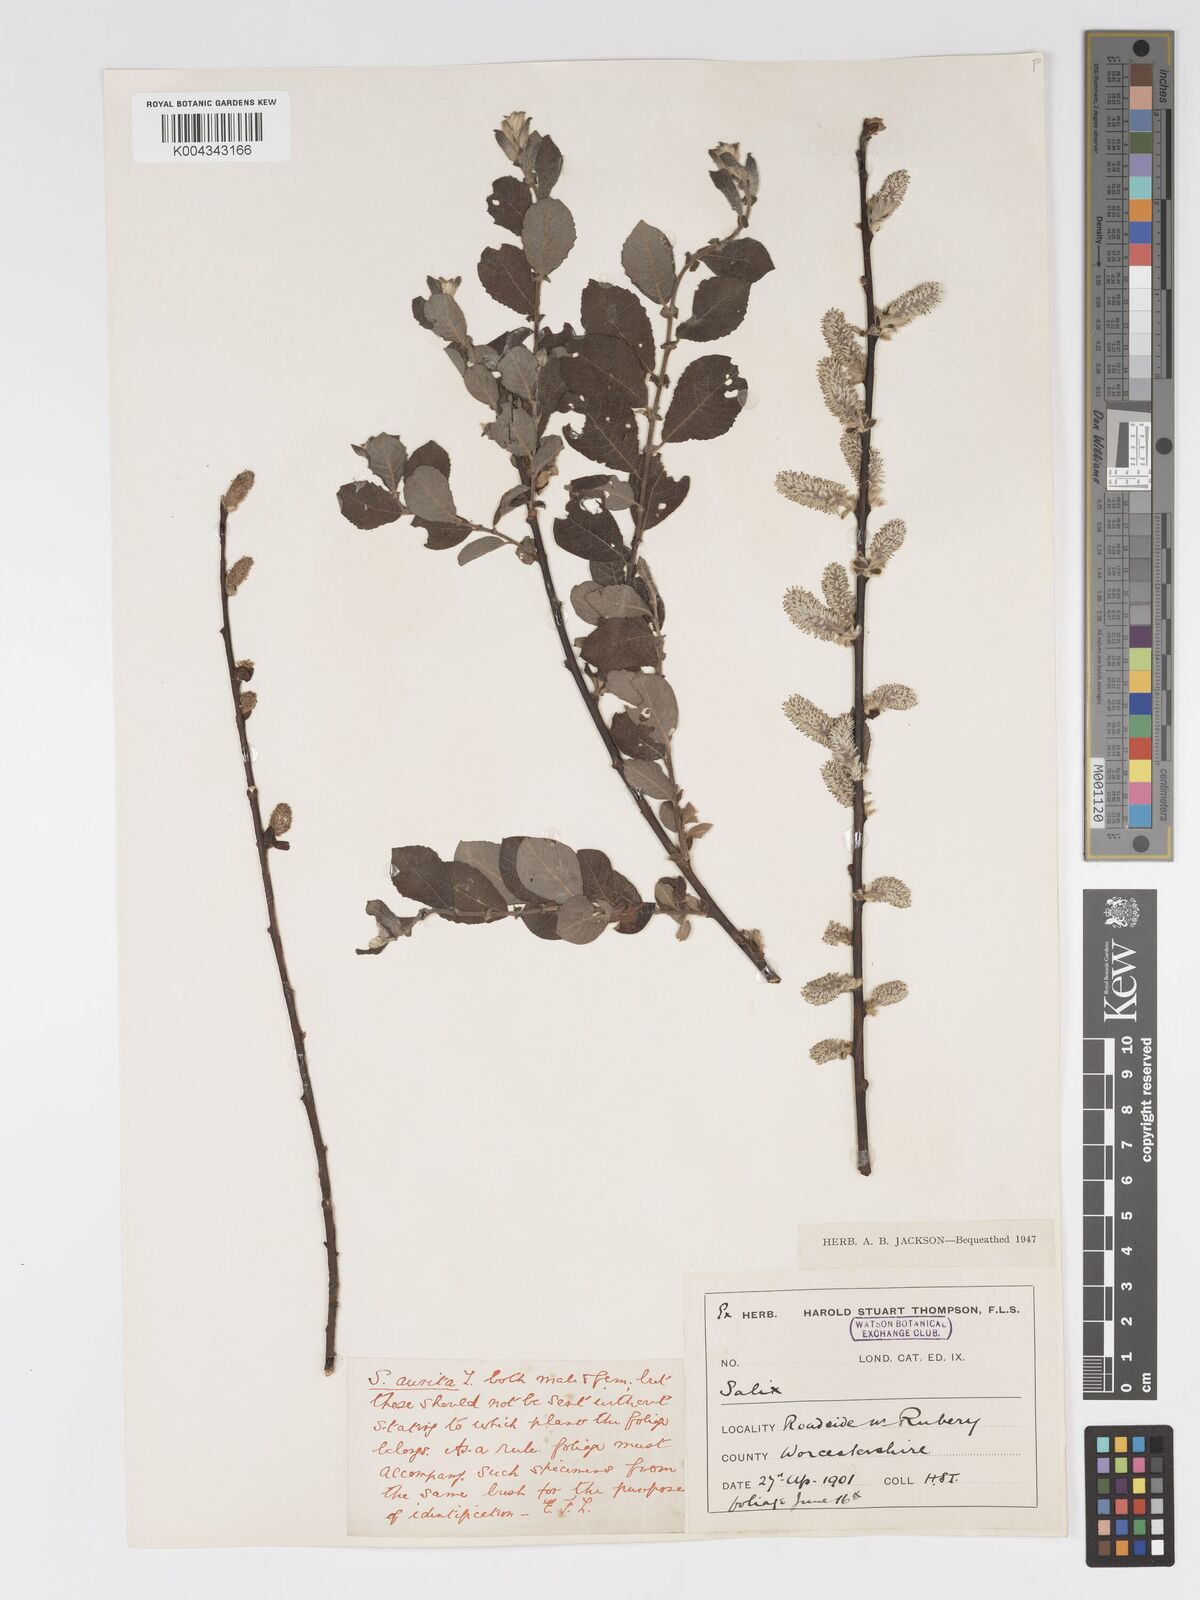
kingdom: Plantae
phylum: Tracheophyta
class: Magnoliopsida
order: Malpighiales
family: Salicaceae
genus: Salix
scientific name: Salix aurita
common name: Eared willow
